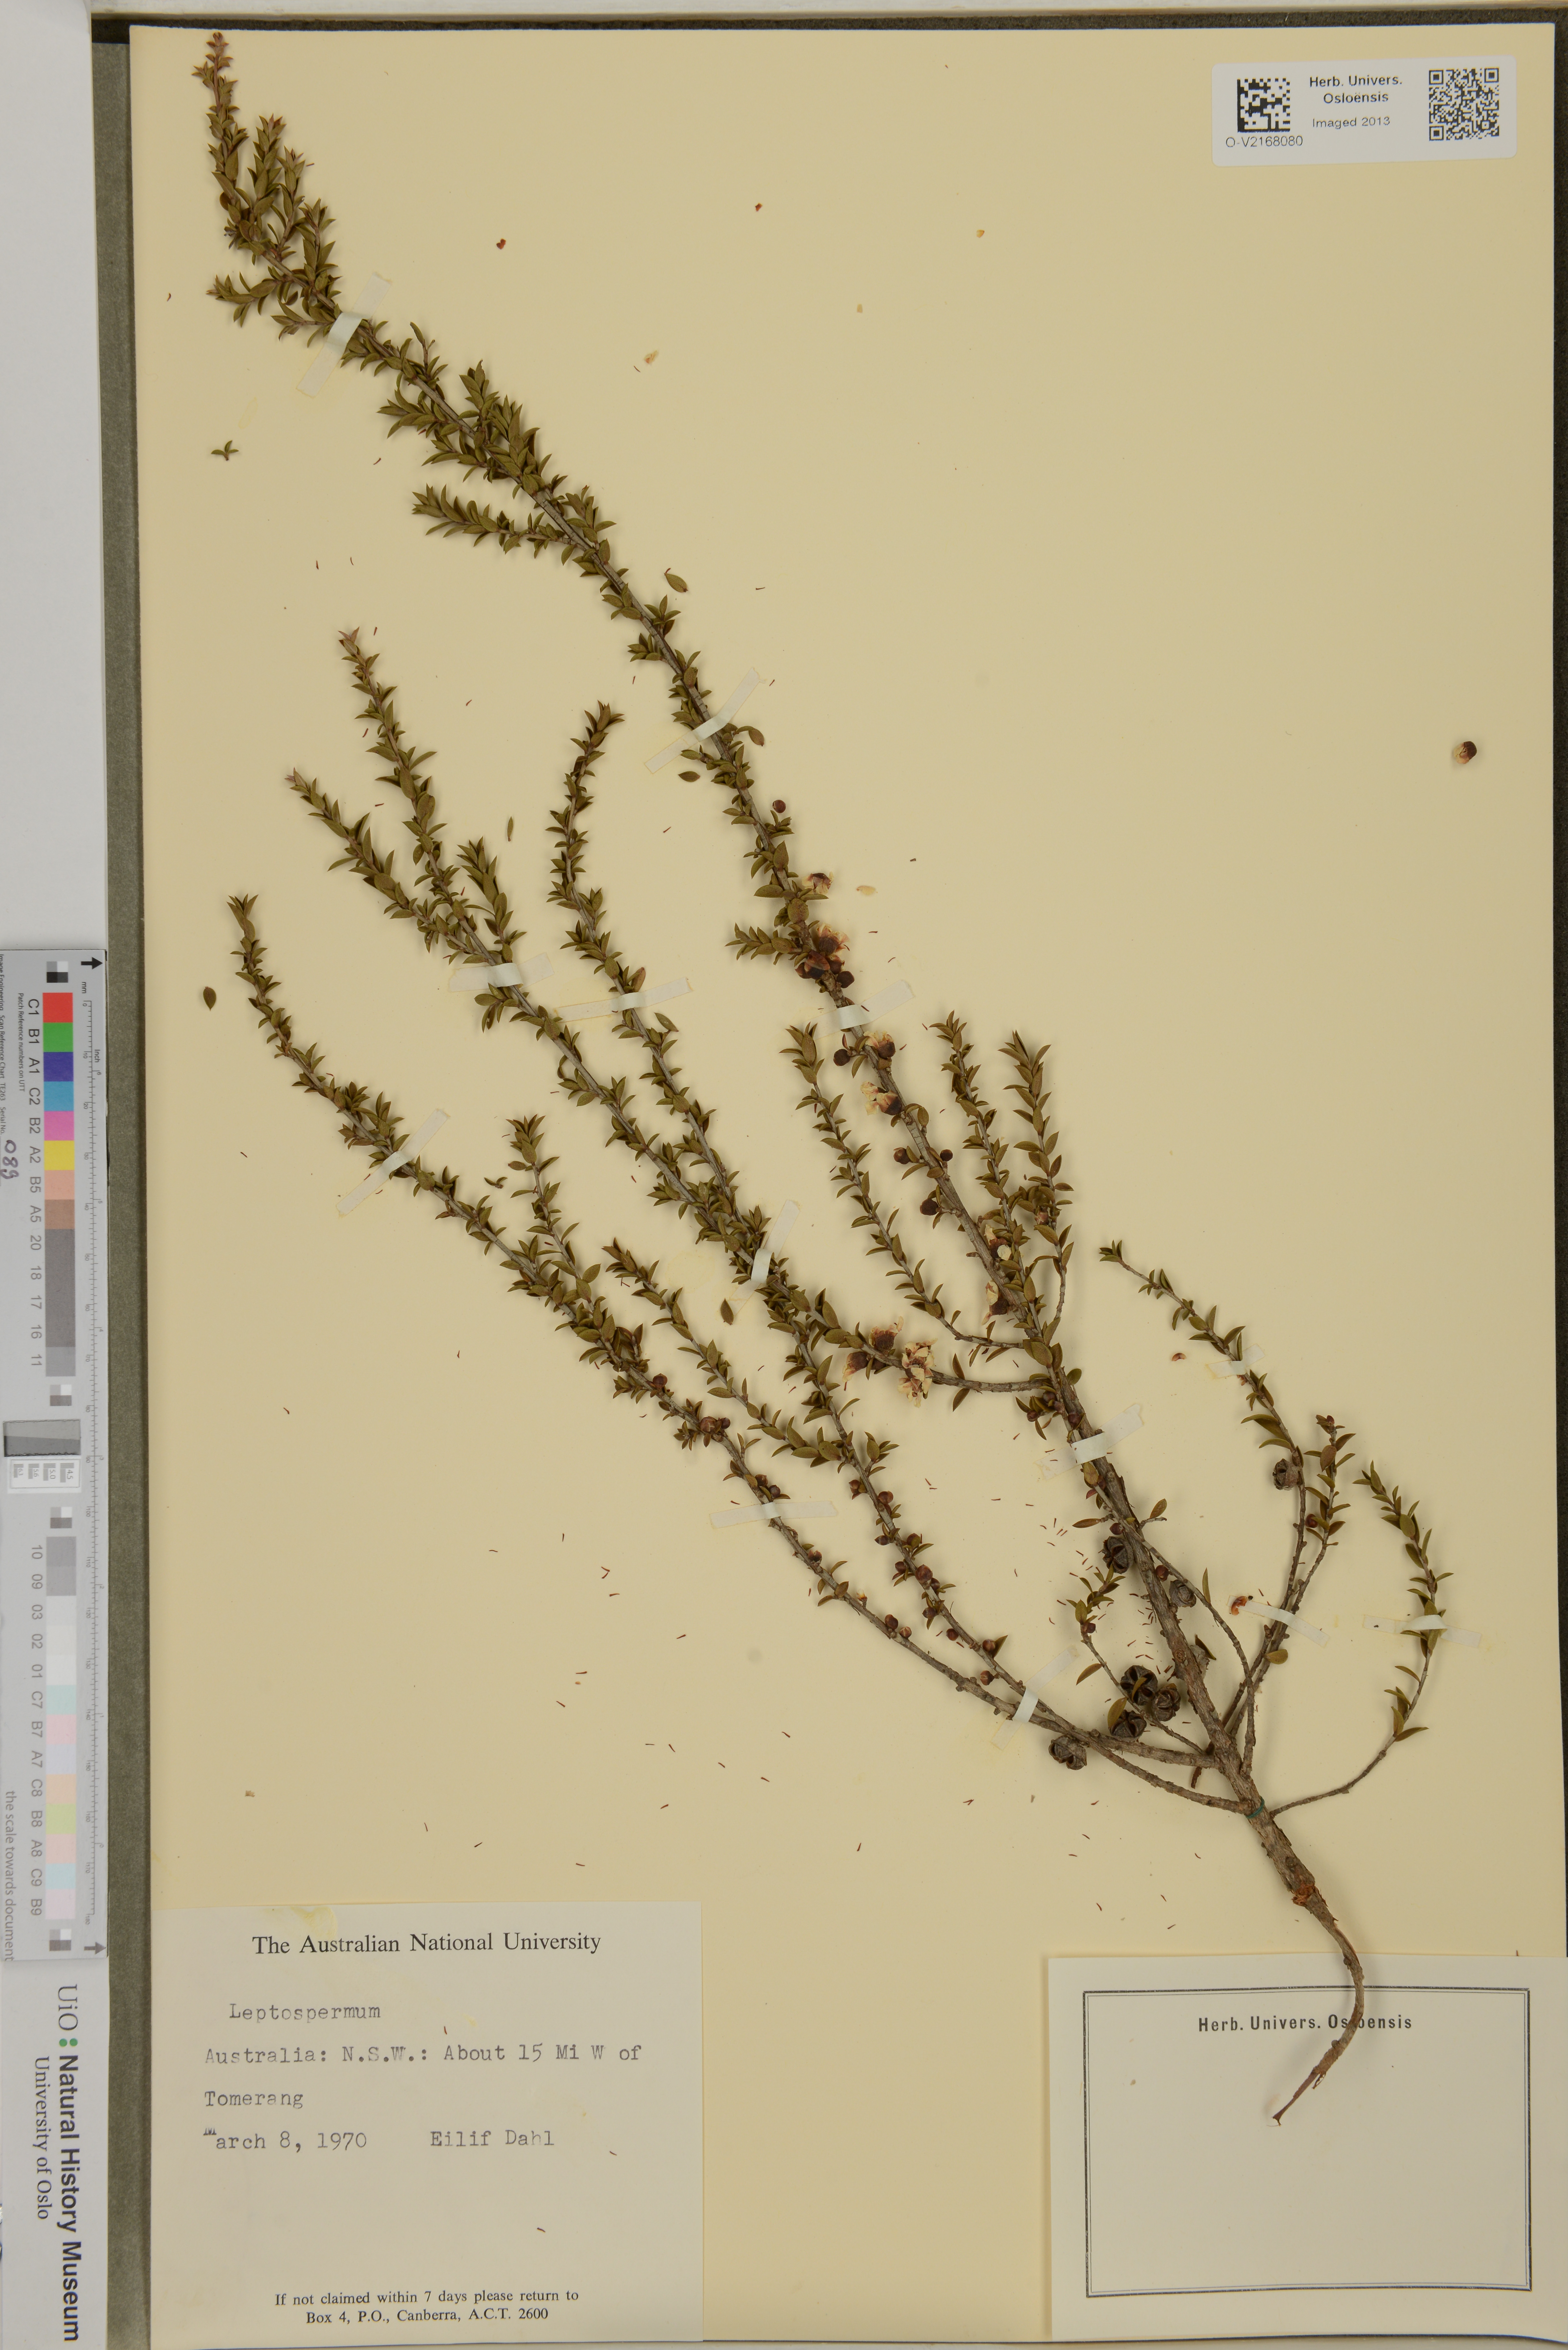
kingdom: Plantae
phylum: Tracheophyta
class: Magnoliopsida
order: Myrtales
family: Myrtaceae
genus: Leptospermum
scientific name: Leptospermum
